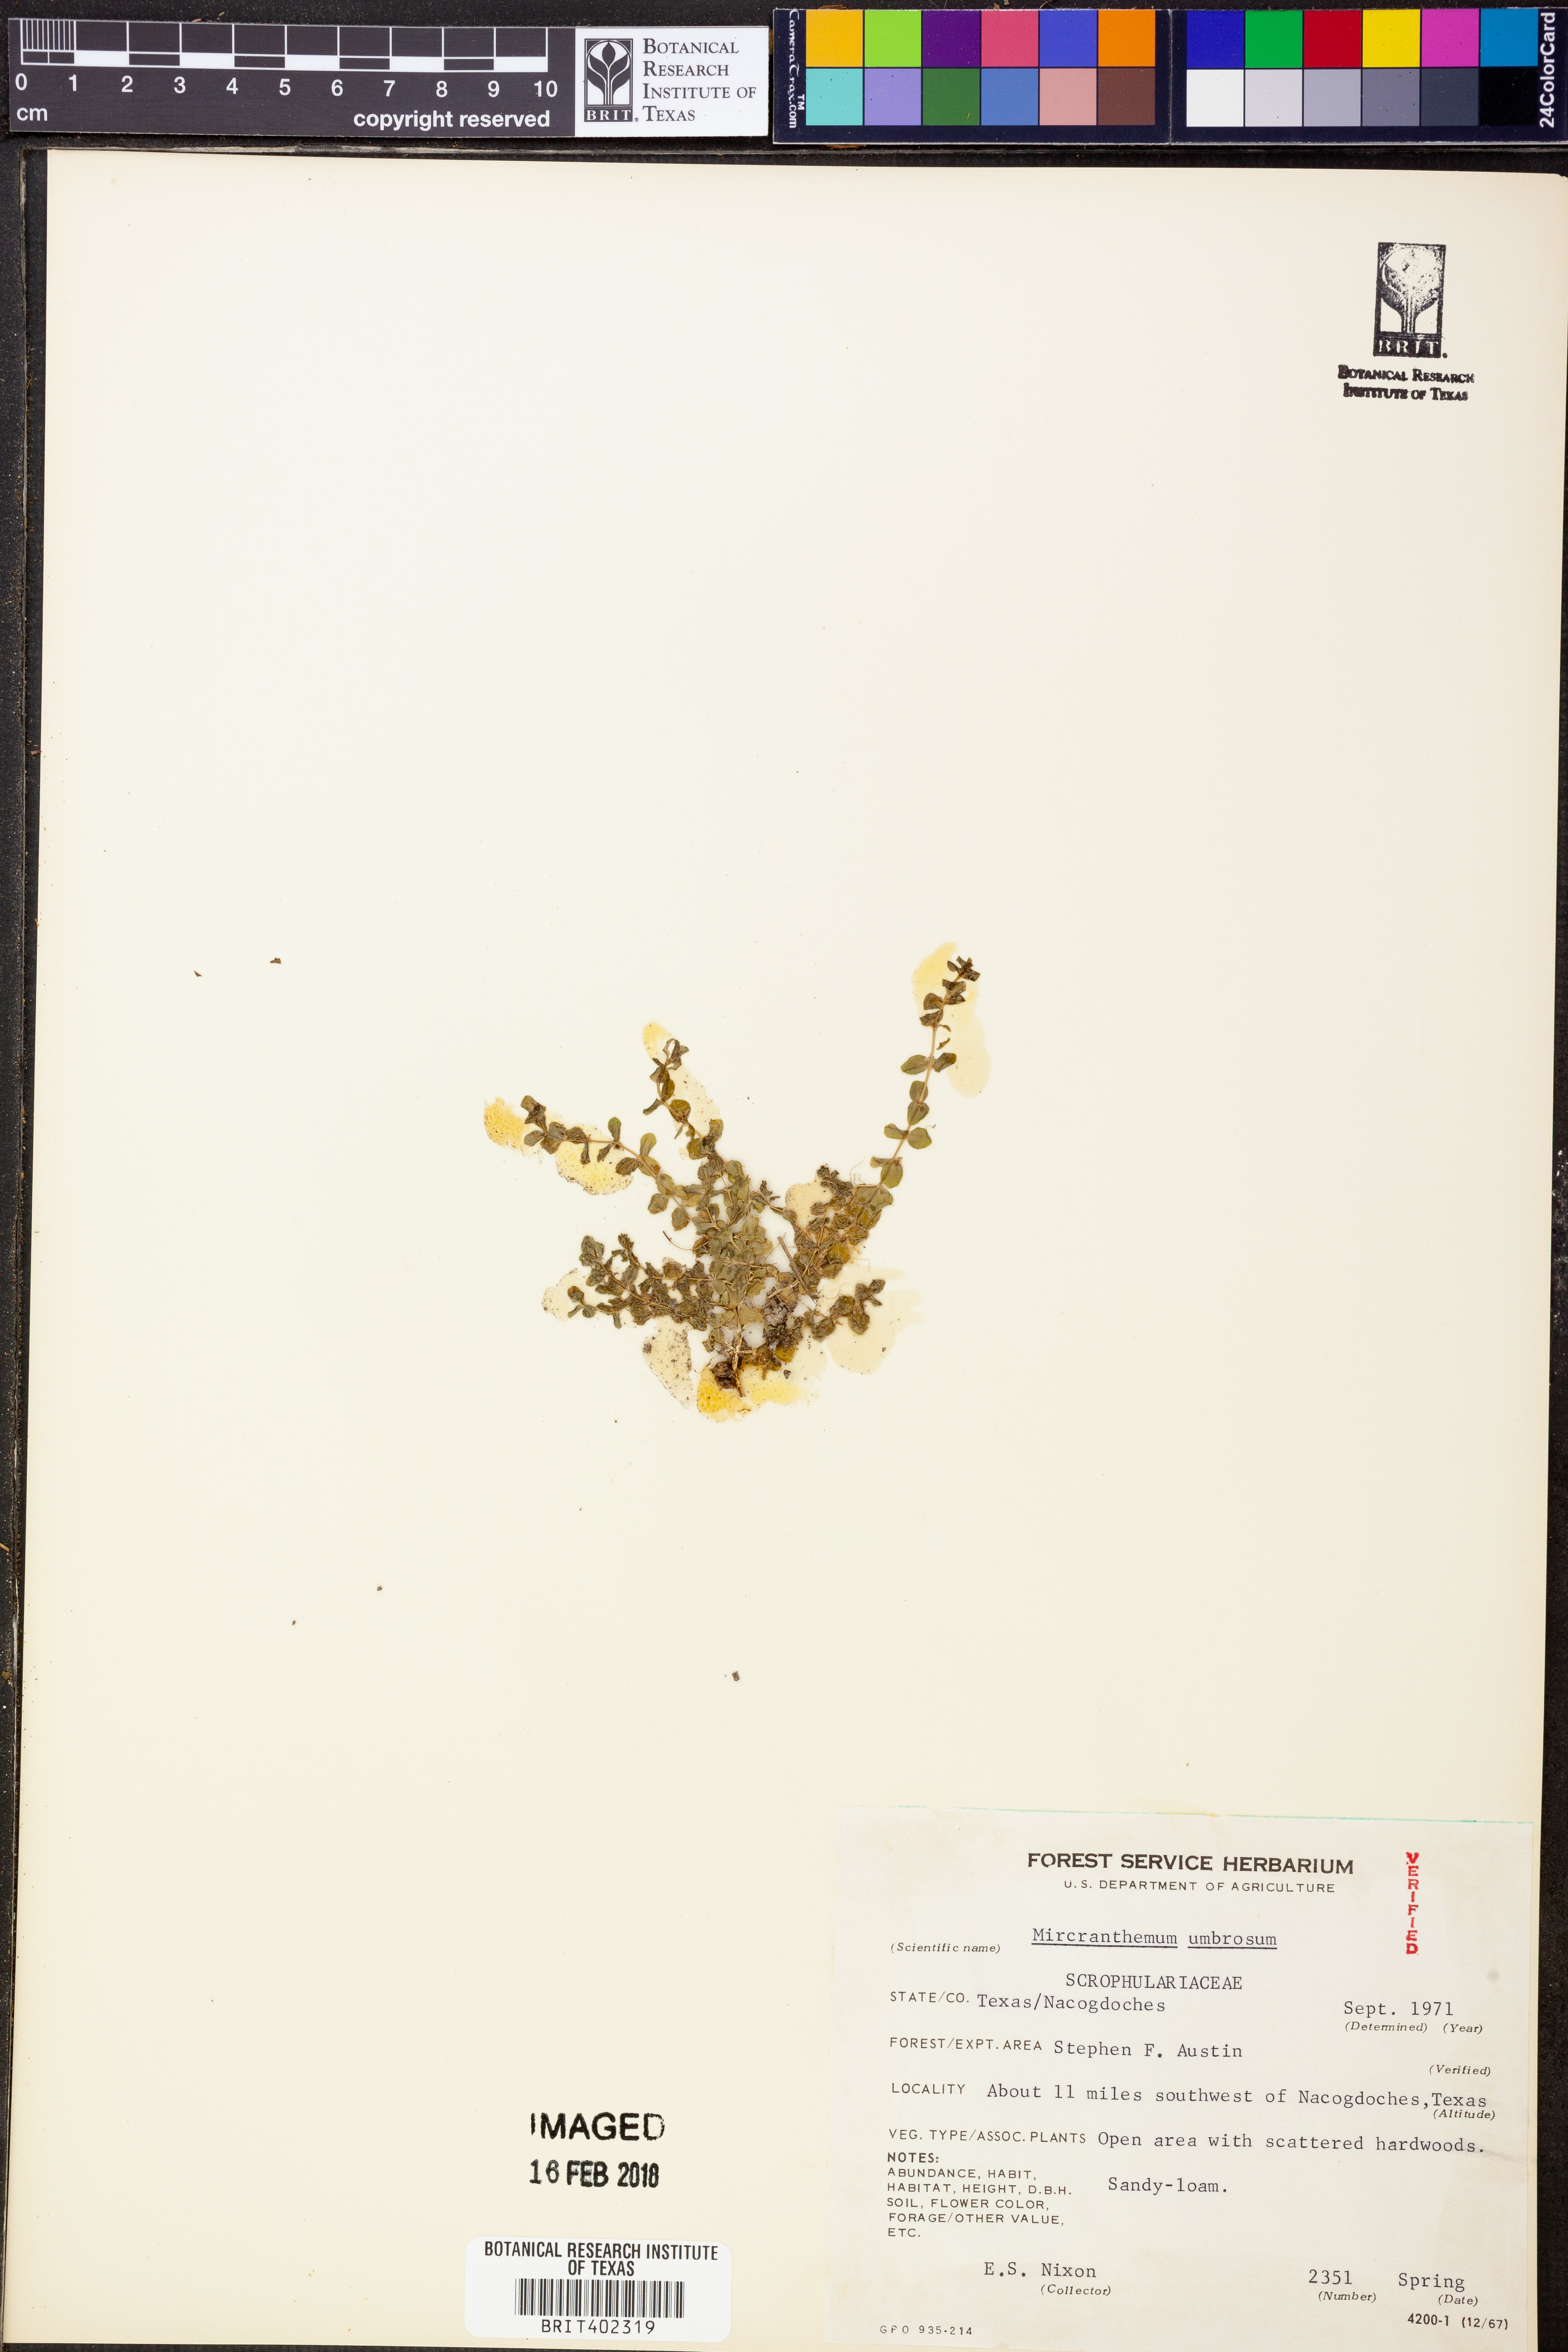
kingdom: Plantae
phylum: Tracheophyta
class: Magnoliopsida
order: Lamiales
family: Linderniaceae
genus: Micranthemum
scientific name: Micranthemum umbrosum
